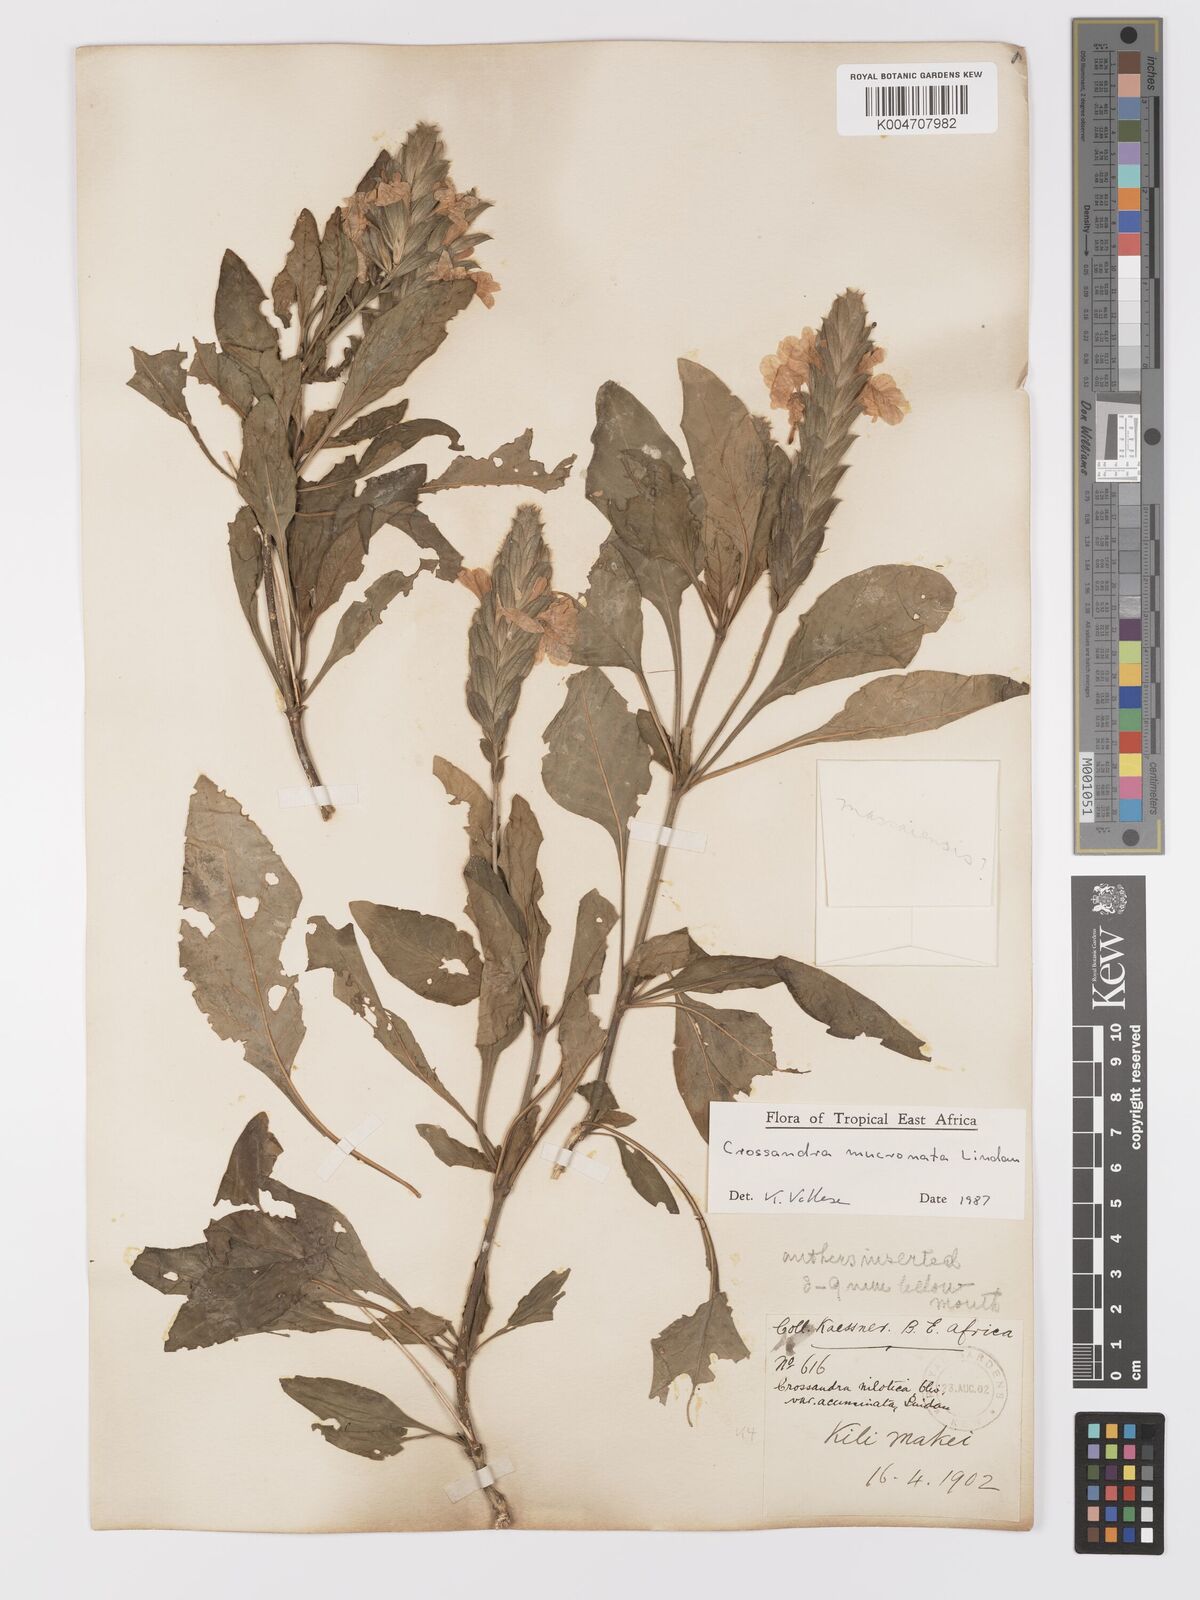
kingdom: Plantae
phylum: Tracheophyta
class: Magnoliopsida
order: Lamiales
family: Acanthaceae
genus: Crossandra
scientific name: Crossandra mucronata
